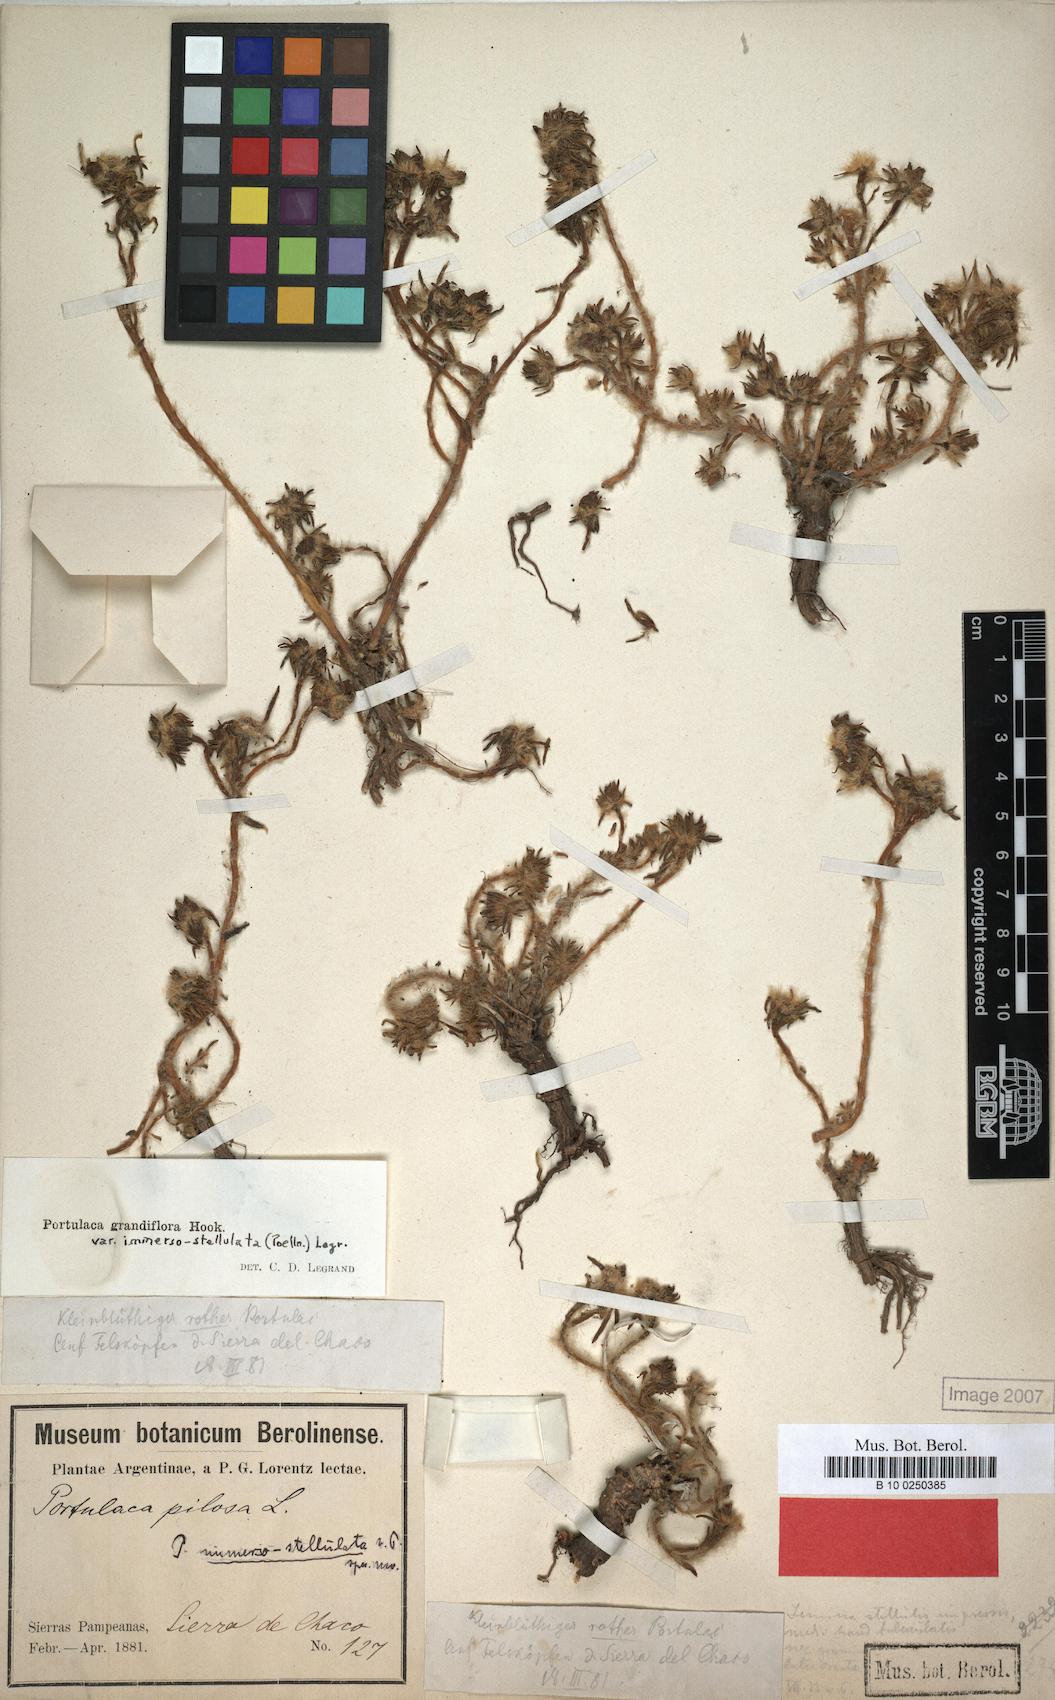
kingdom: Plantae
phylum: Tracheophyta
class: Magnoliopsida
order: Caryophyllales
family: Portulacaceae
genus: Portulaca
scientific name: Portulaca grandiflora
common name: Moss-rose
